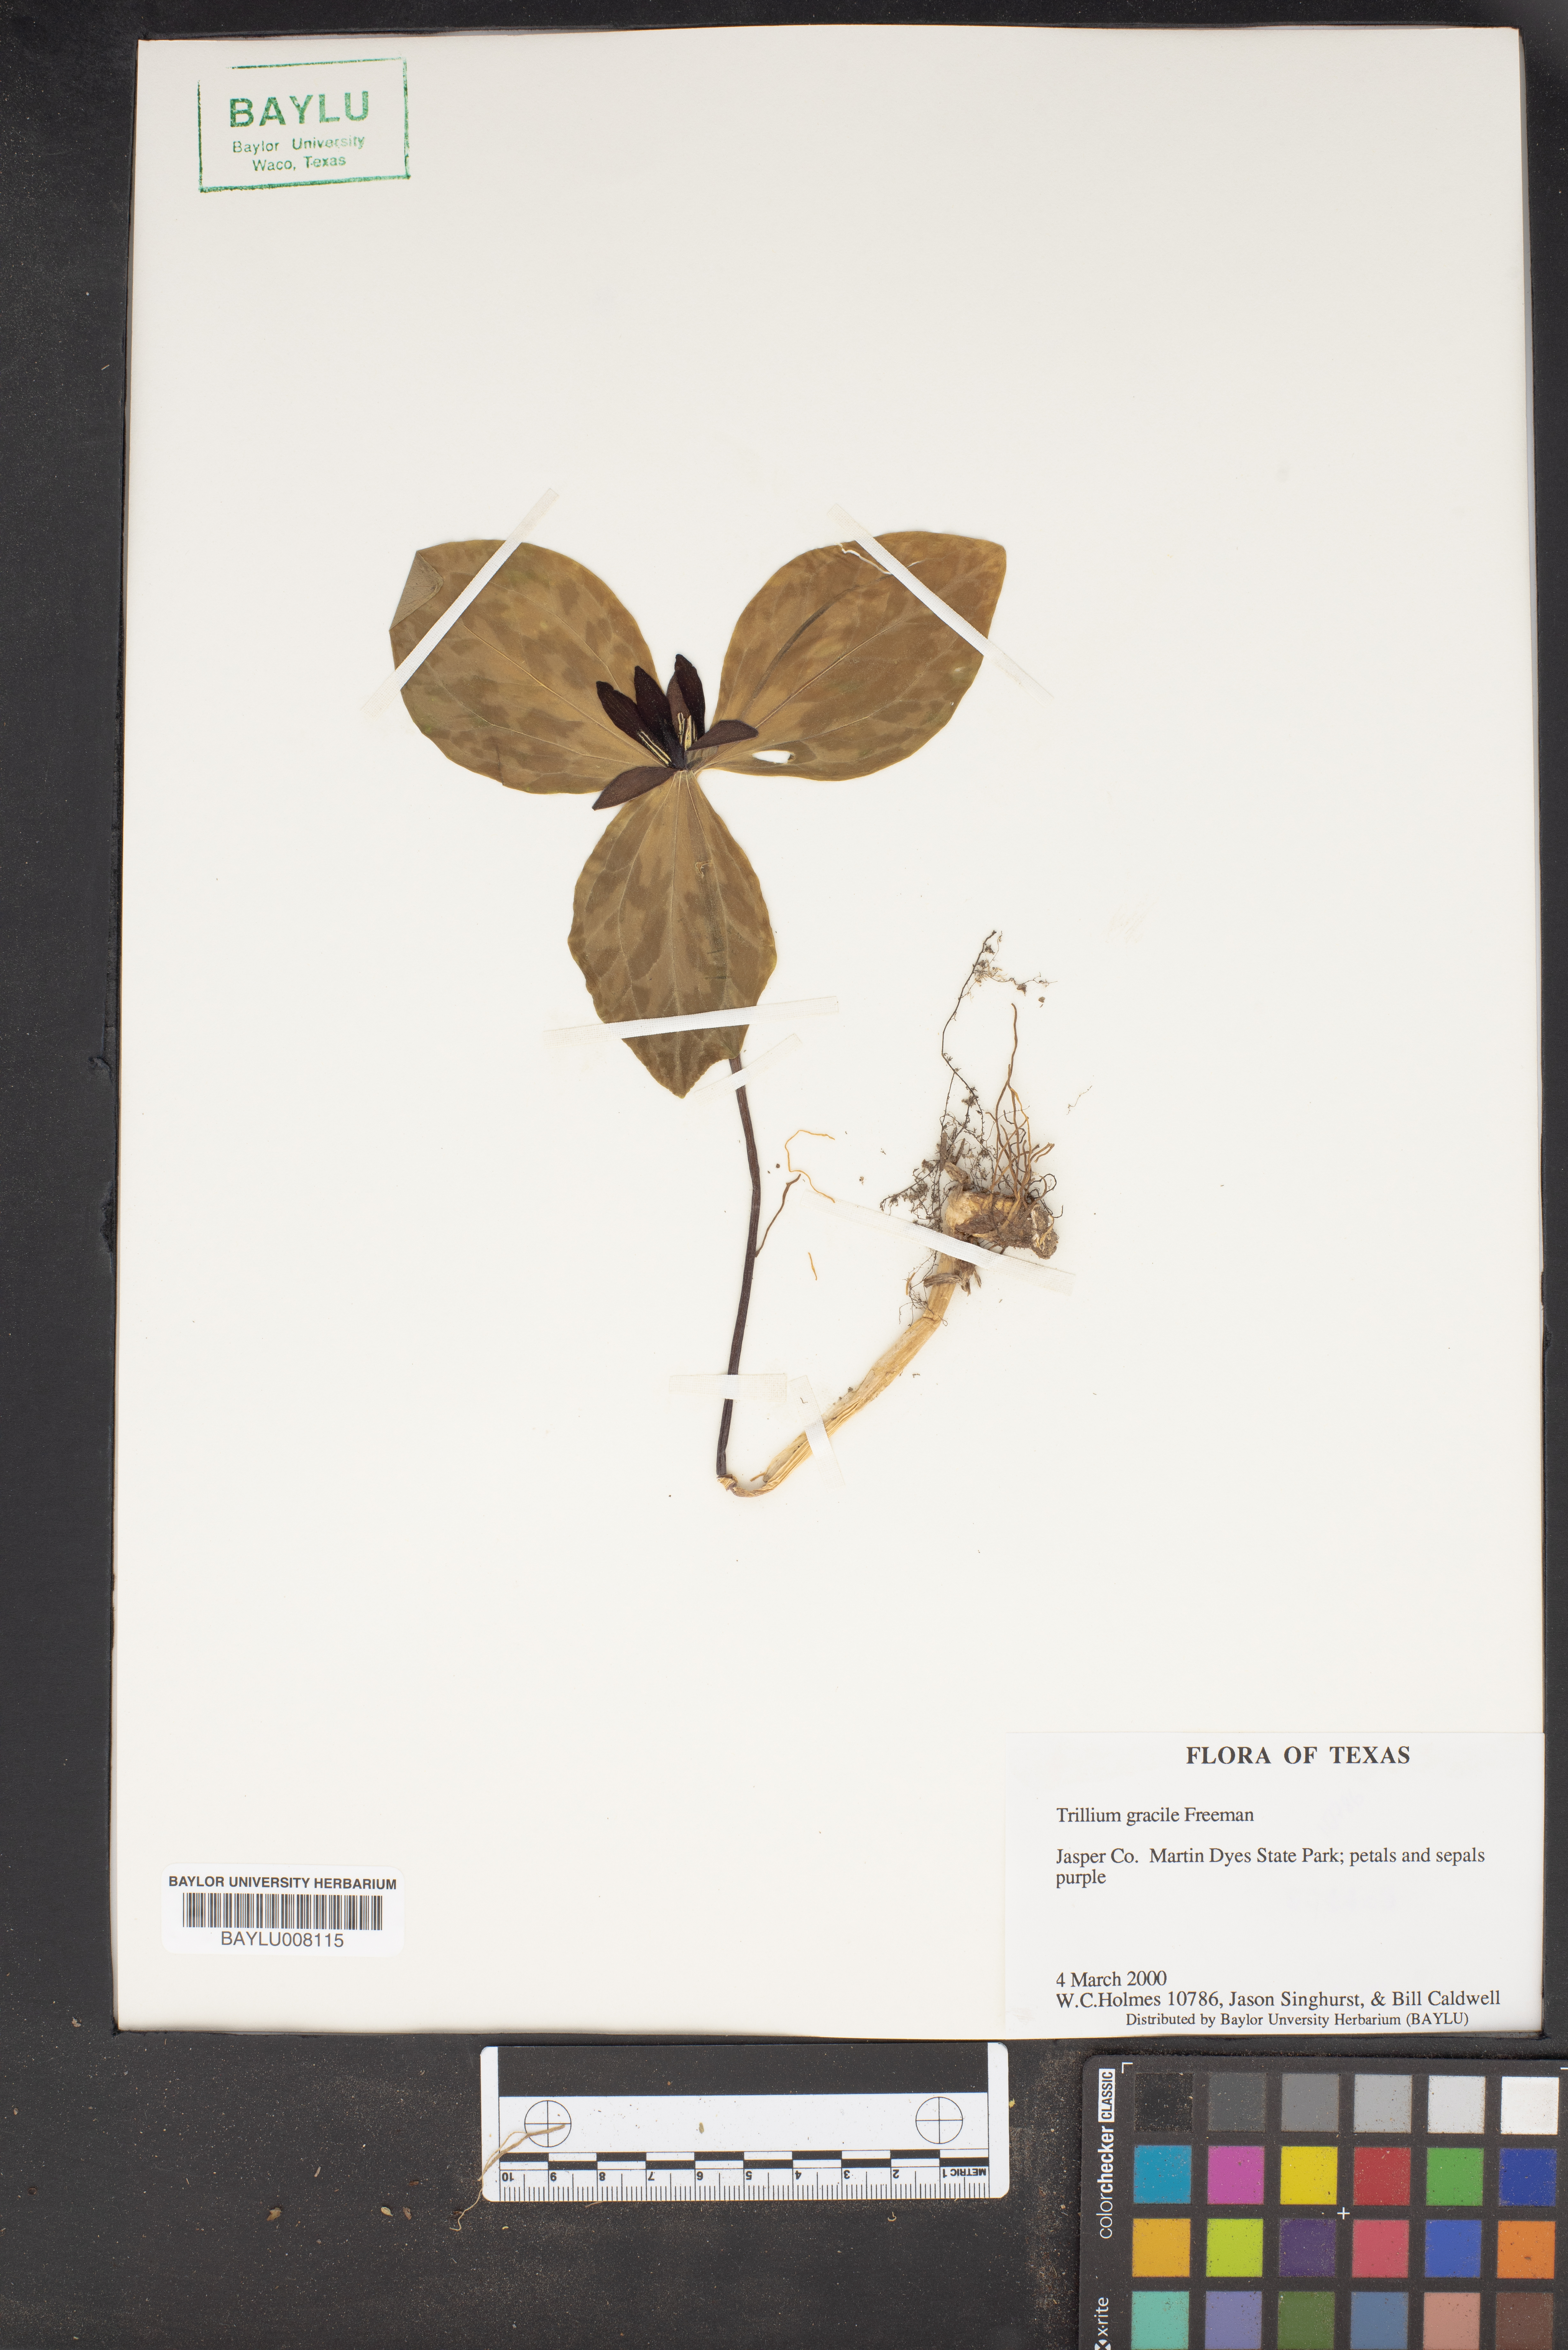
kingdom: Plantae
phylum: Tracheophyta
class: Liliopsida
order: Liliales
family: Melanthiaceae
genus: Trillium
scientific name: Trillium gracile
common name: Graceful trillium
